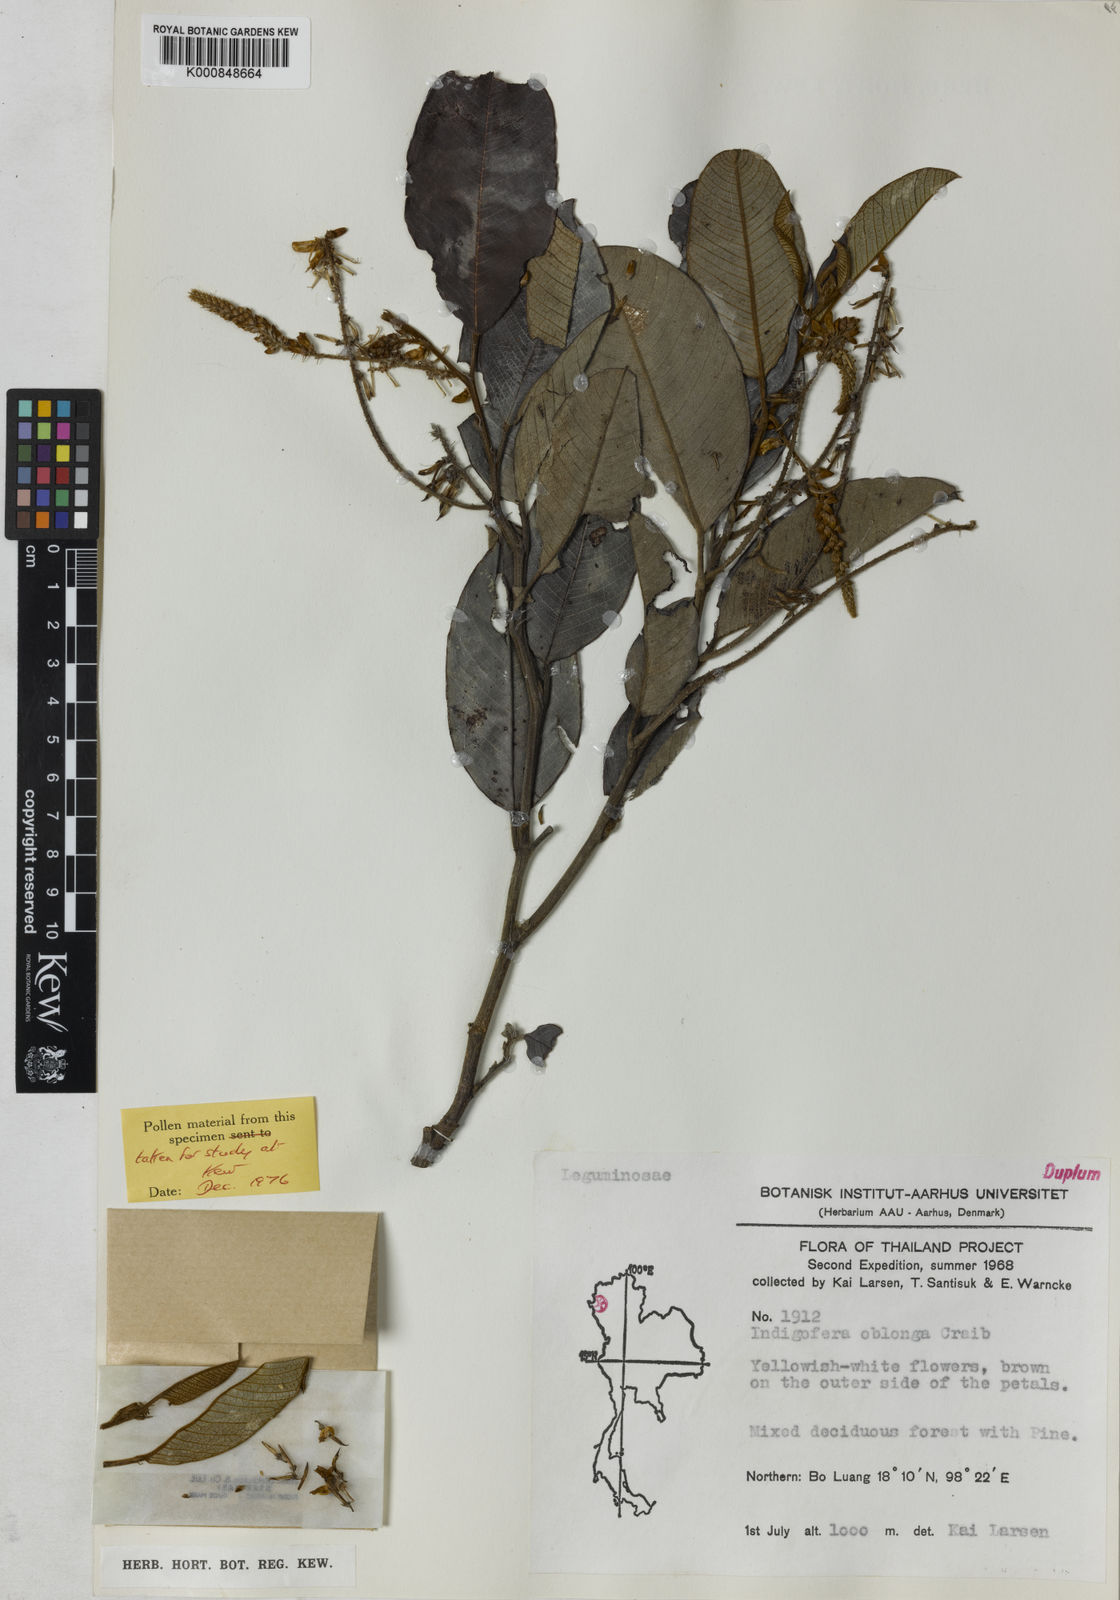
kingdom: Plantae
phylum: Tracheophyta
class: Magnoliopsida
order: Fabales
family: Fabaceae
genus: Indigofera
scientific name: Indigofera caloneura
